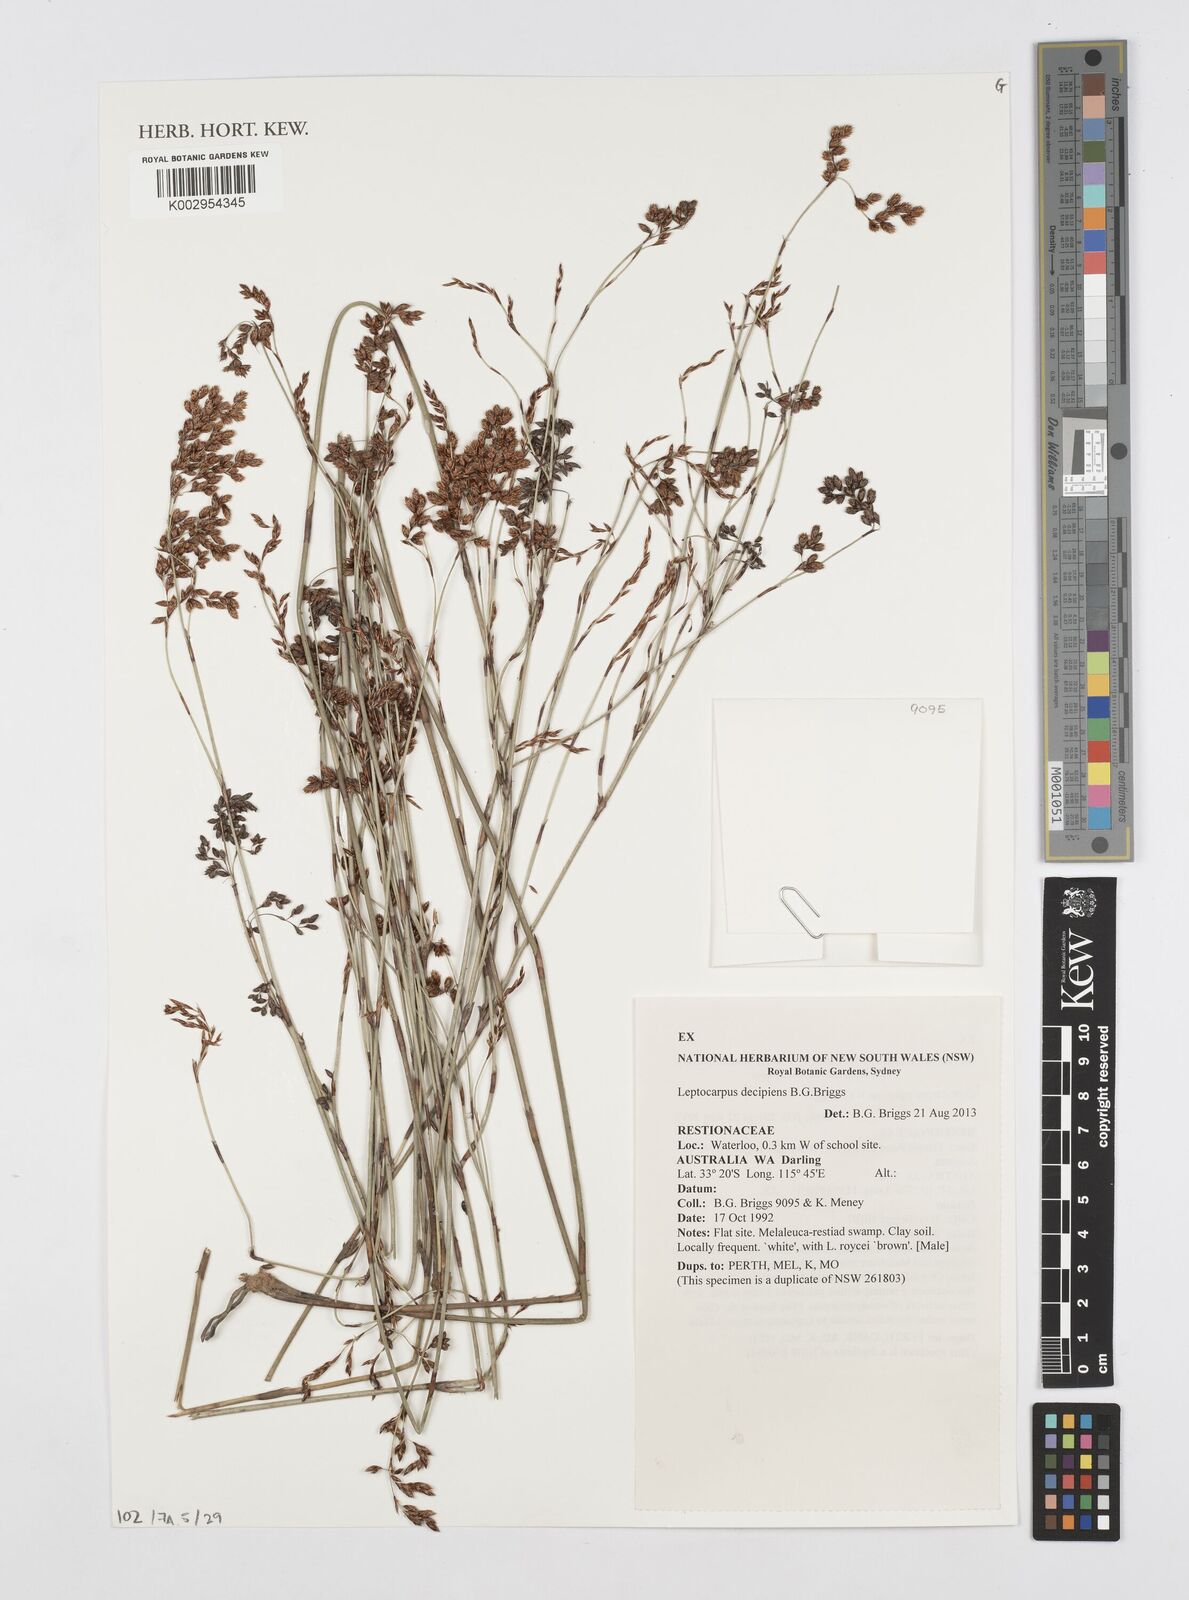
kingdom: Plantae
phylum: Tracheophyta
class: Liliopsida
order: Poales
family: Restionaceae
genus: Leptocarpus
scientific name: Leptocarpus decipiens
